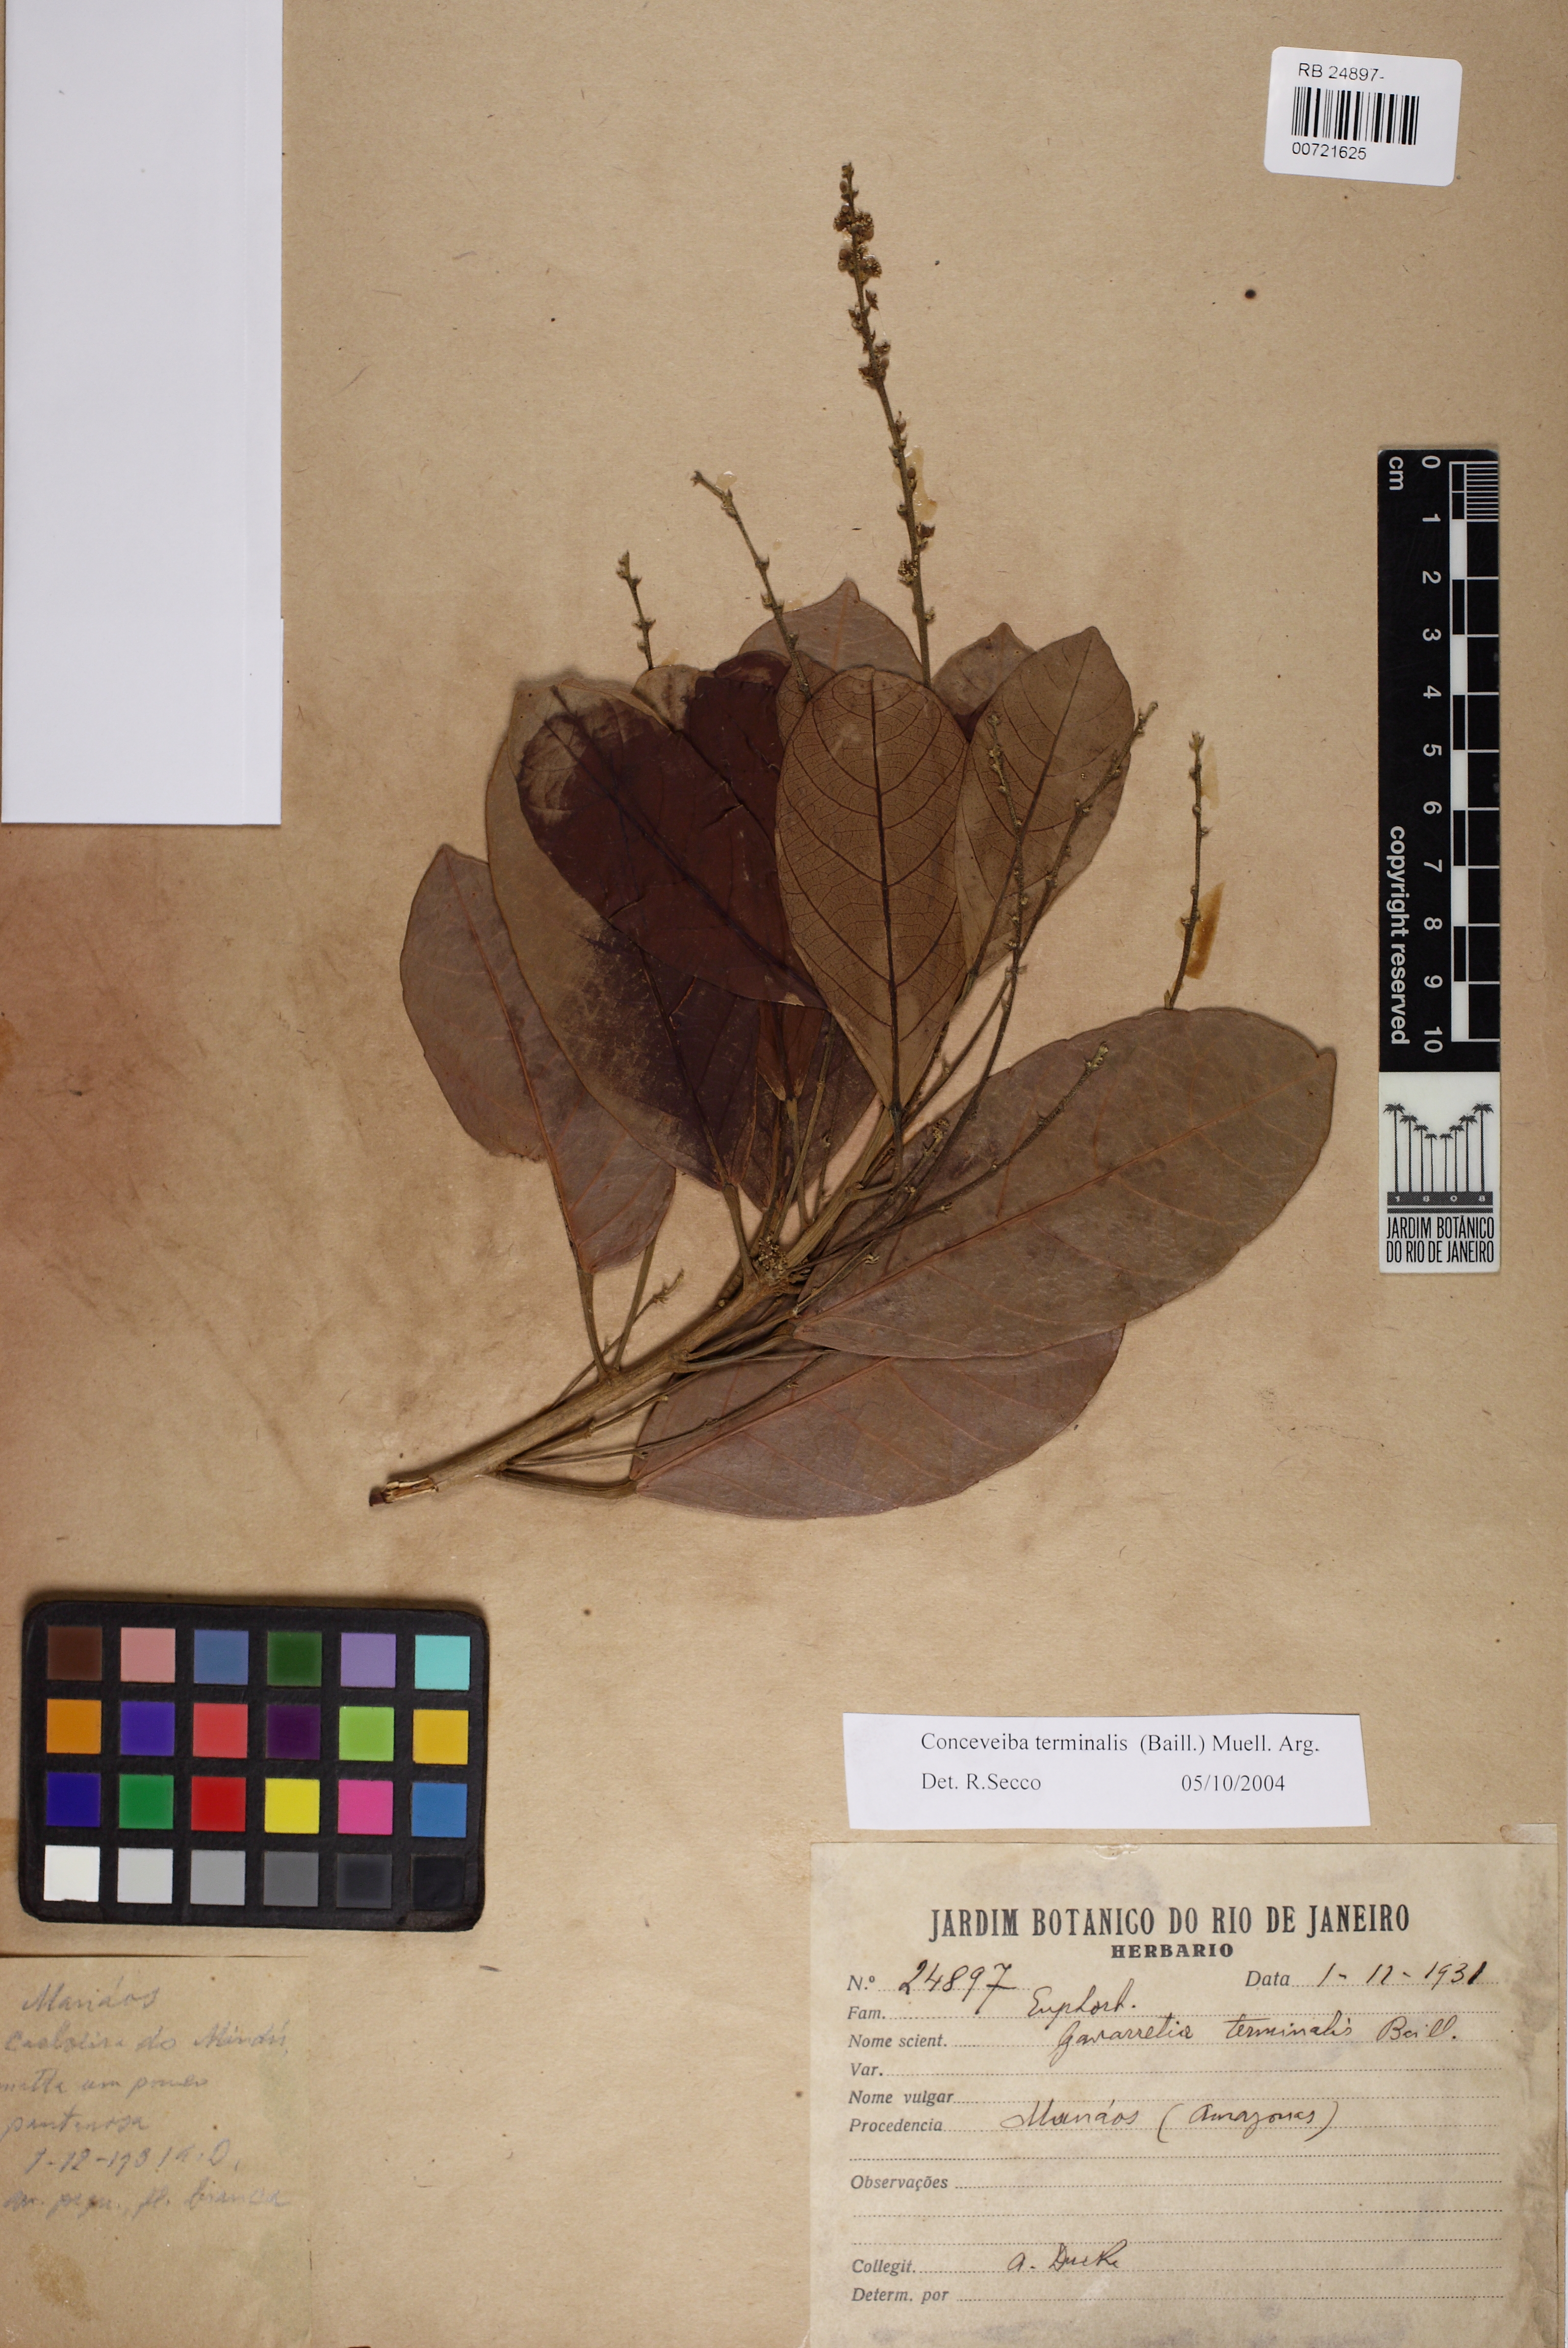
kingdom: Plantae
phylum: Tracheophyta
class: Magnoliopsida
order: Malpighiales
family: Euphorbiaceae
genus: Conceveiba
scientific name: Conceveiba terminalis
